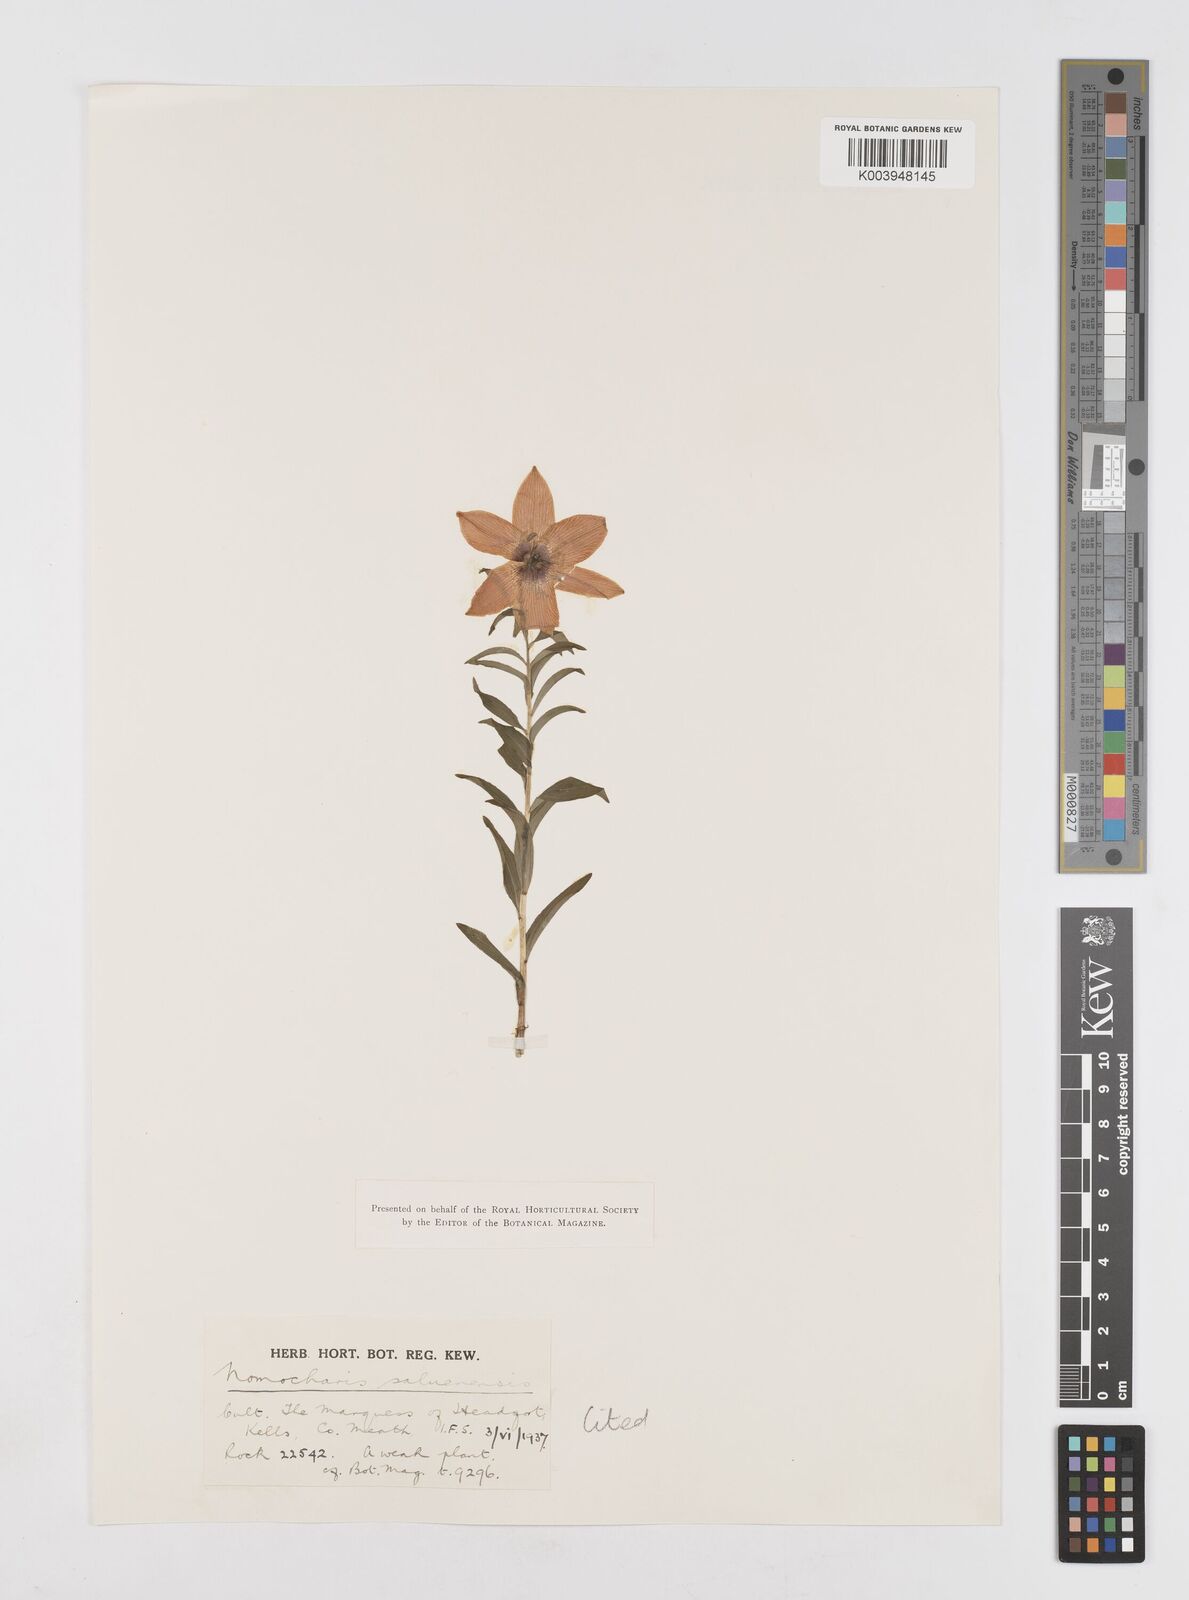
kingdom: Plantae
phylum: Tracheophyta
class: Liliopsida
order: Liliales
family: Liliaceae
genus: Lilium
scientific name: Lilium saluenense
